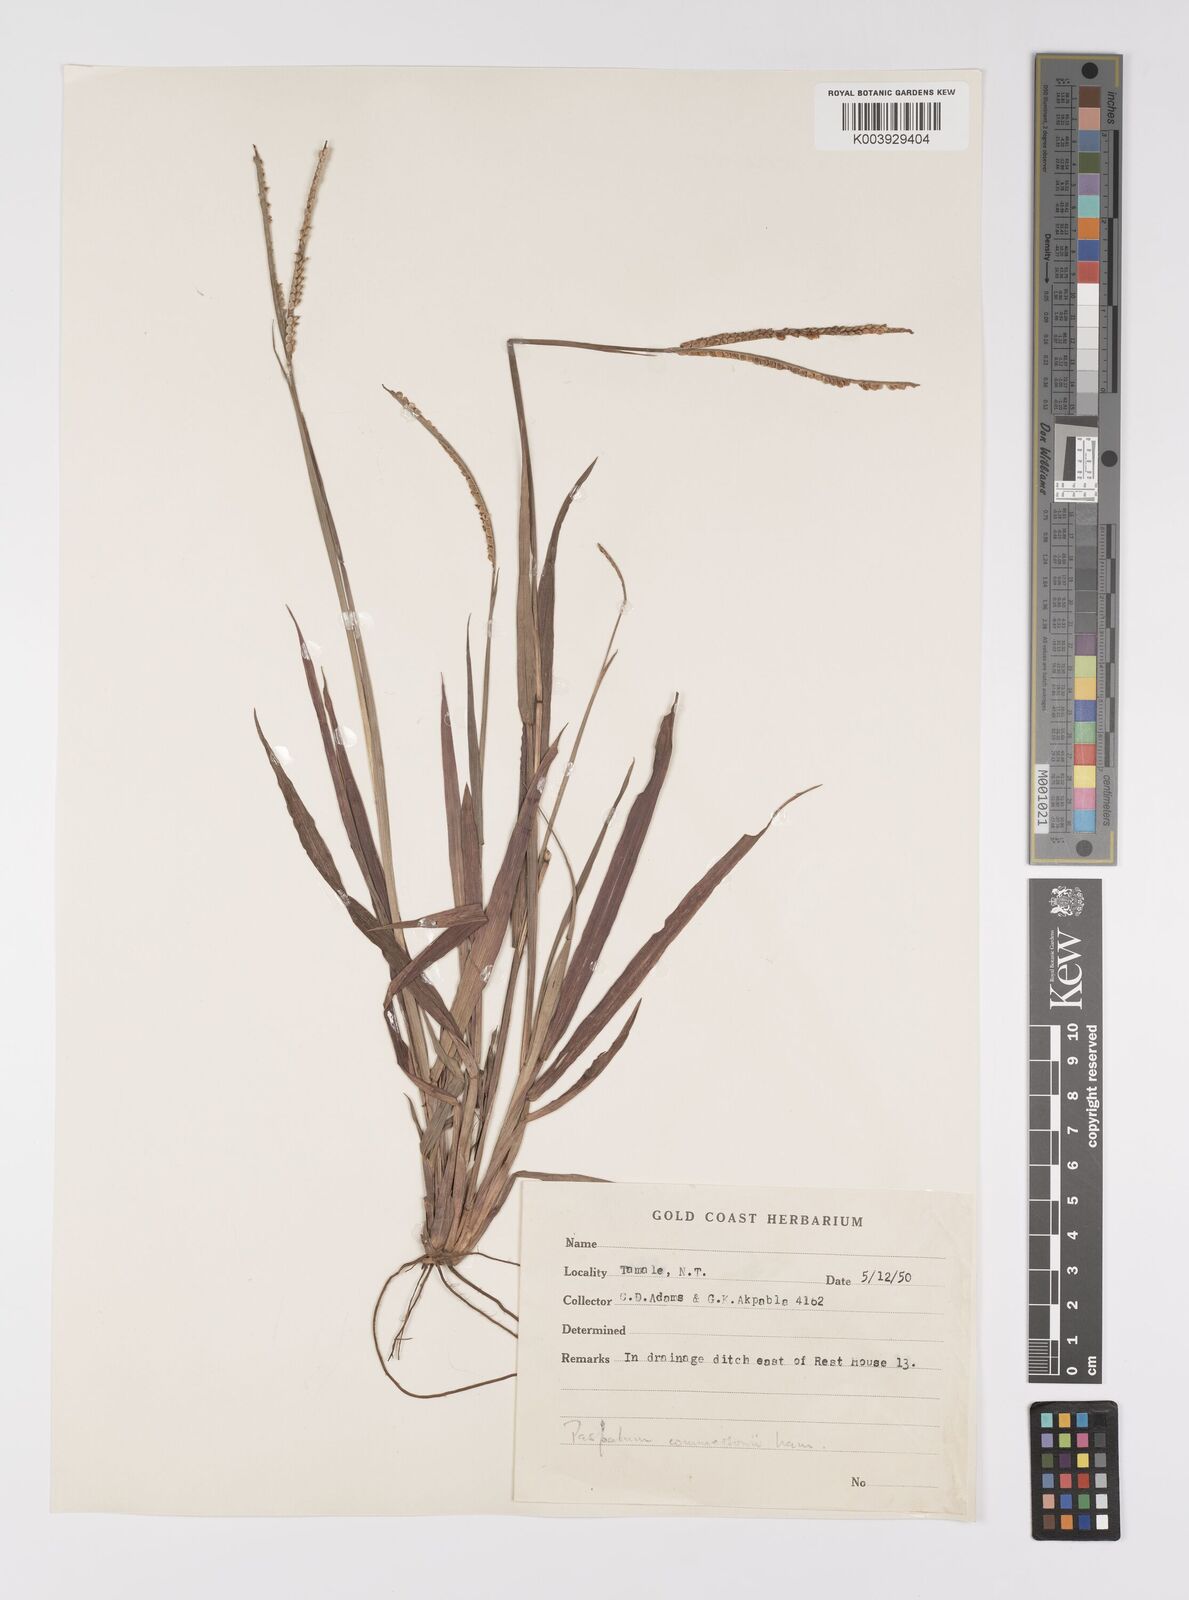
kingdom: Plantae
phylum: Tracheophyta
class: Liliopsida
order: Poales
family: Poaceae
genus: Paspalum
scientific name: Paspalum scrobiculatum
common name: Kodo millet
